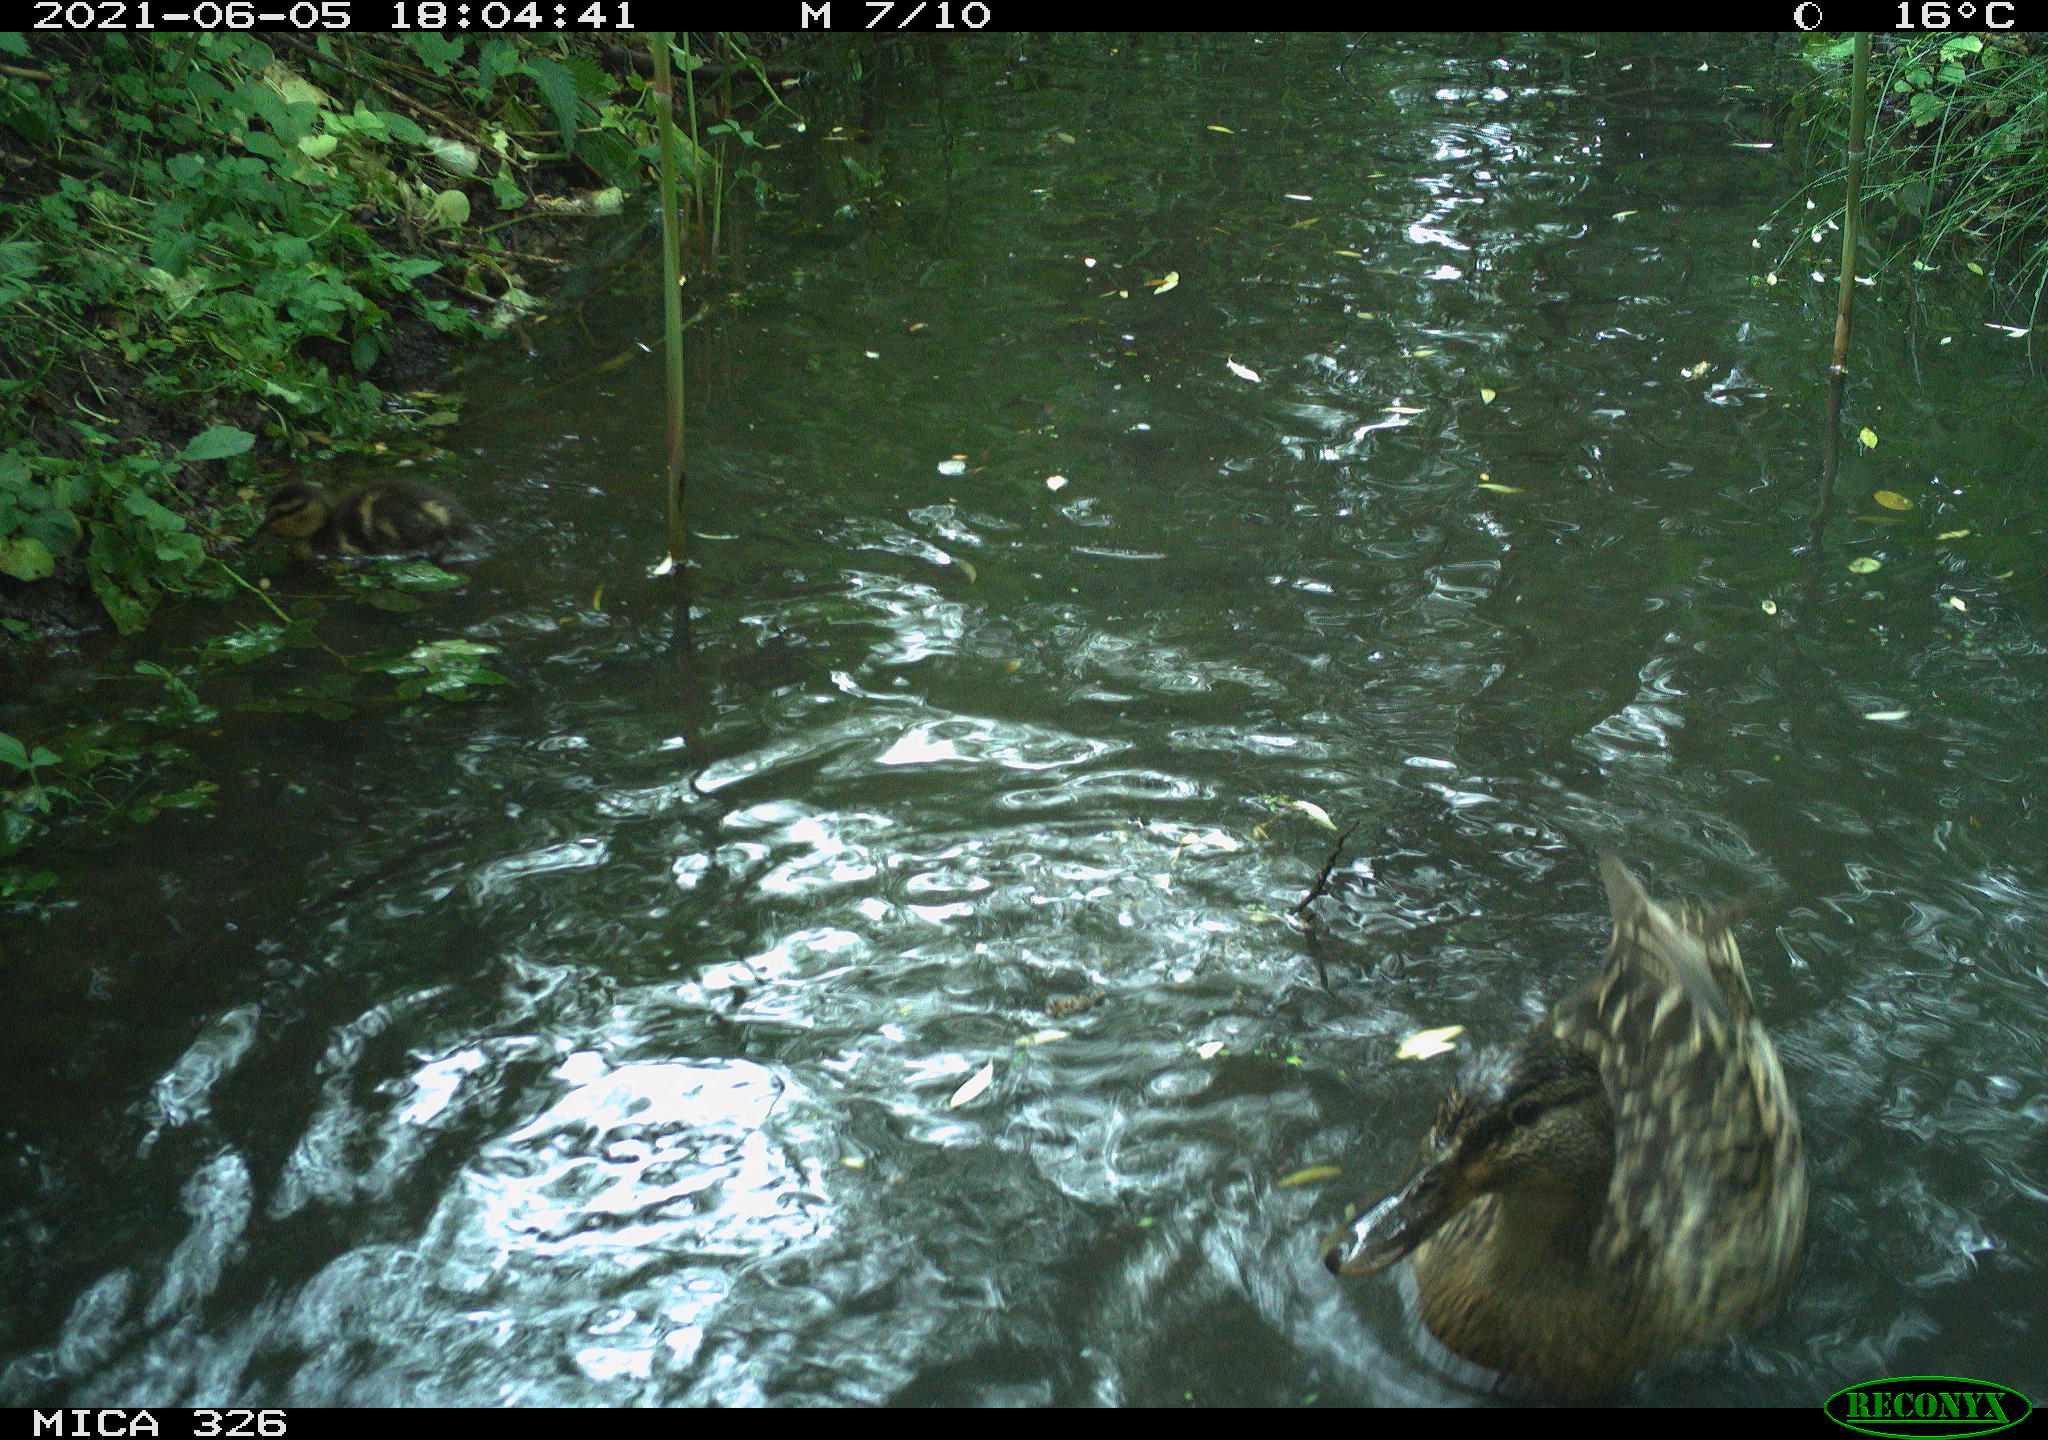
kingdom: Animalia
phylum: Chordata
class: Aves
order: Anseriformes
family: Anatidae
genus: Anas
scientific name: Anas platyrhynchos
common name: Mallard
